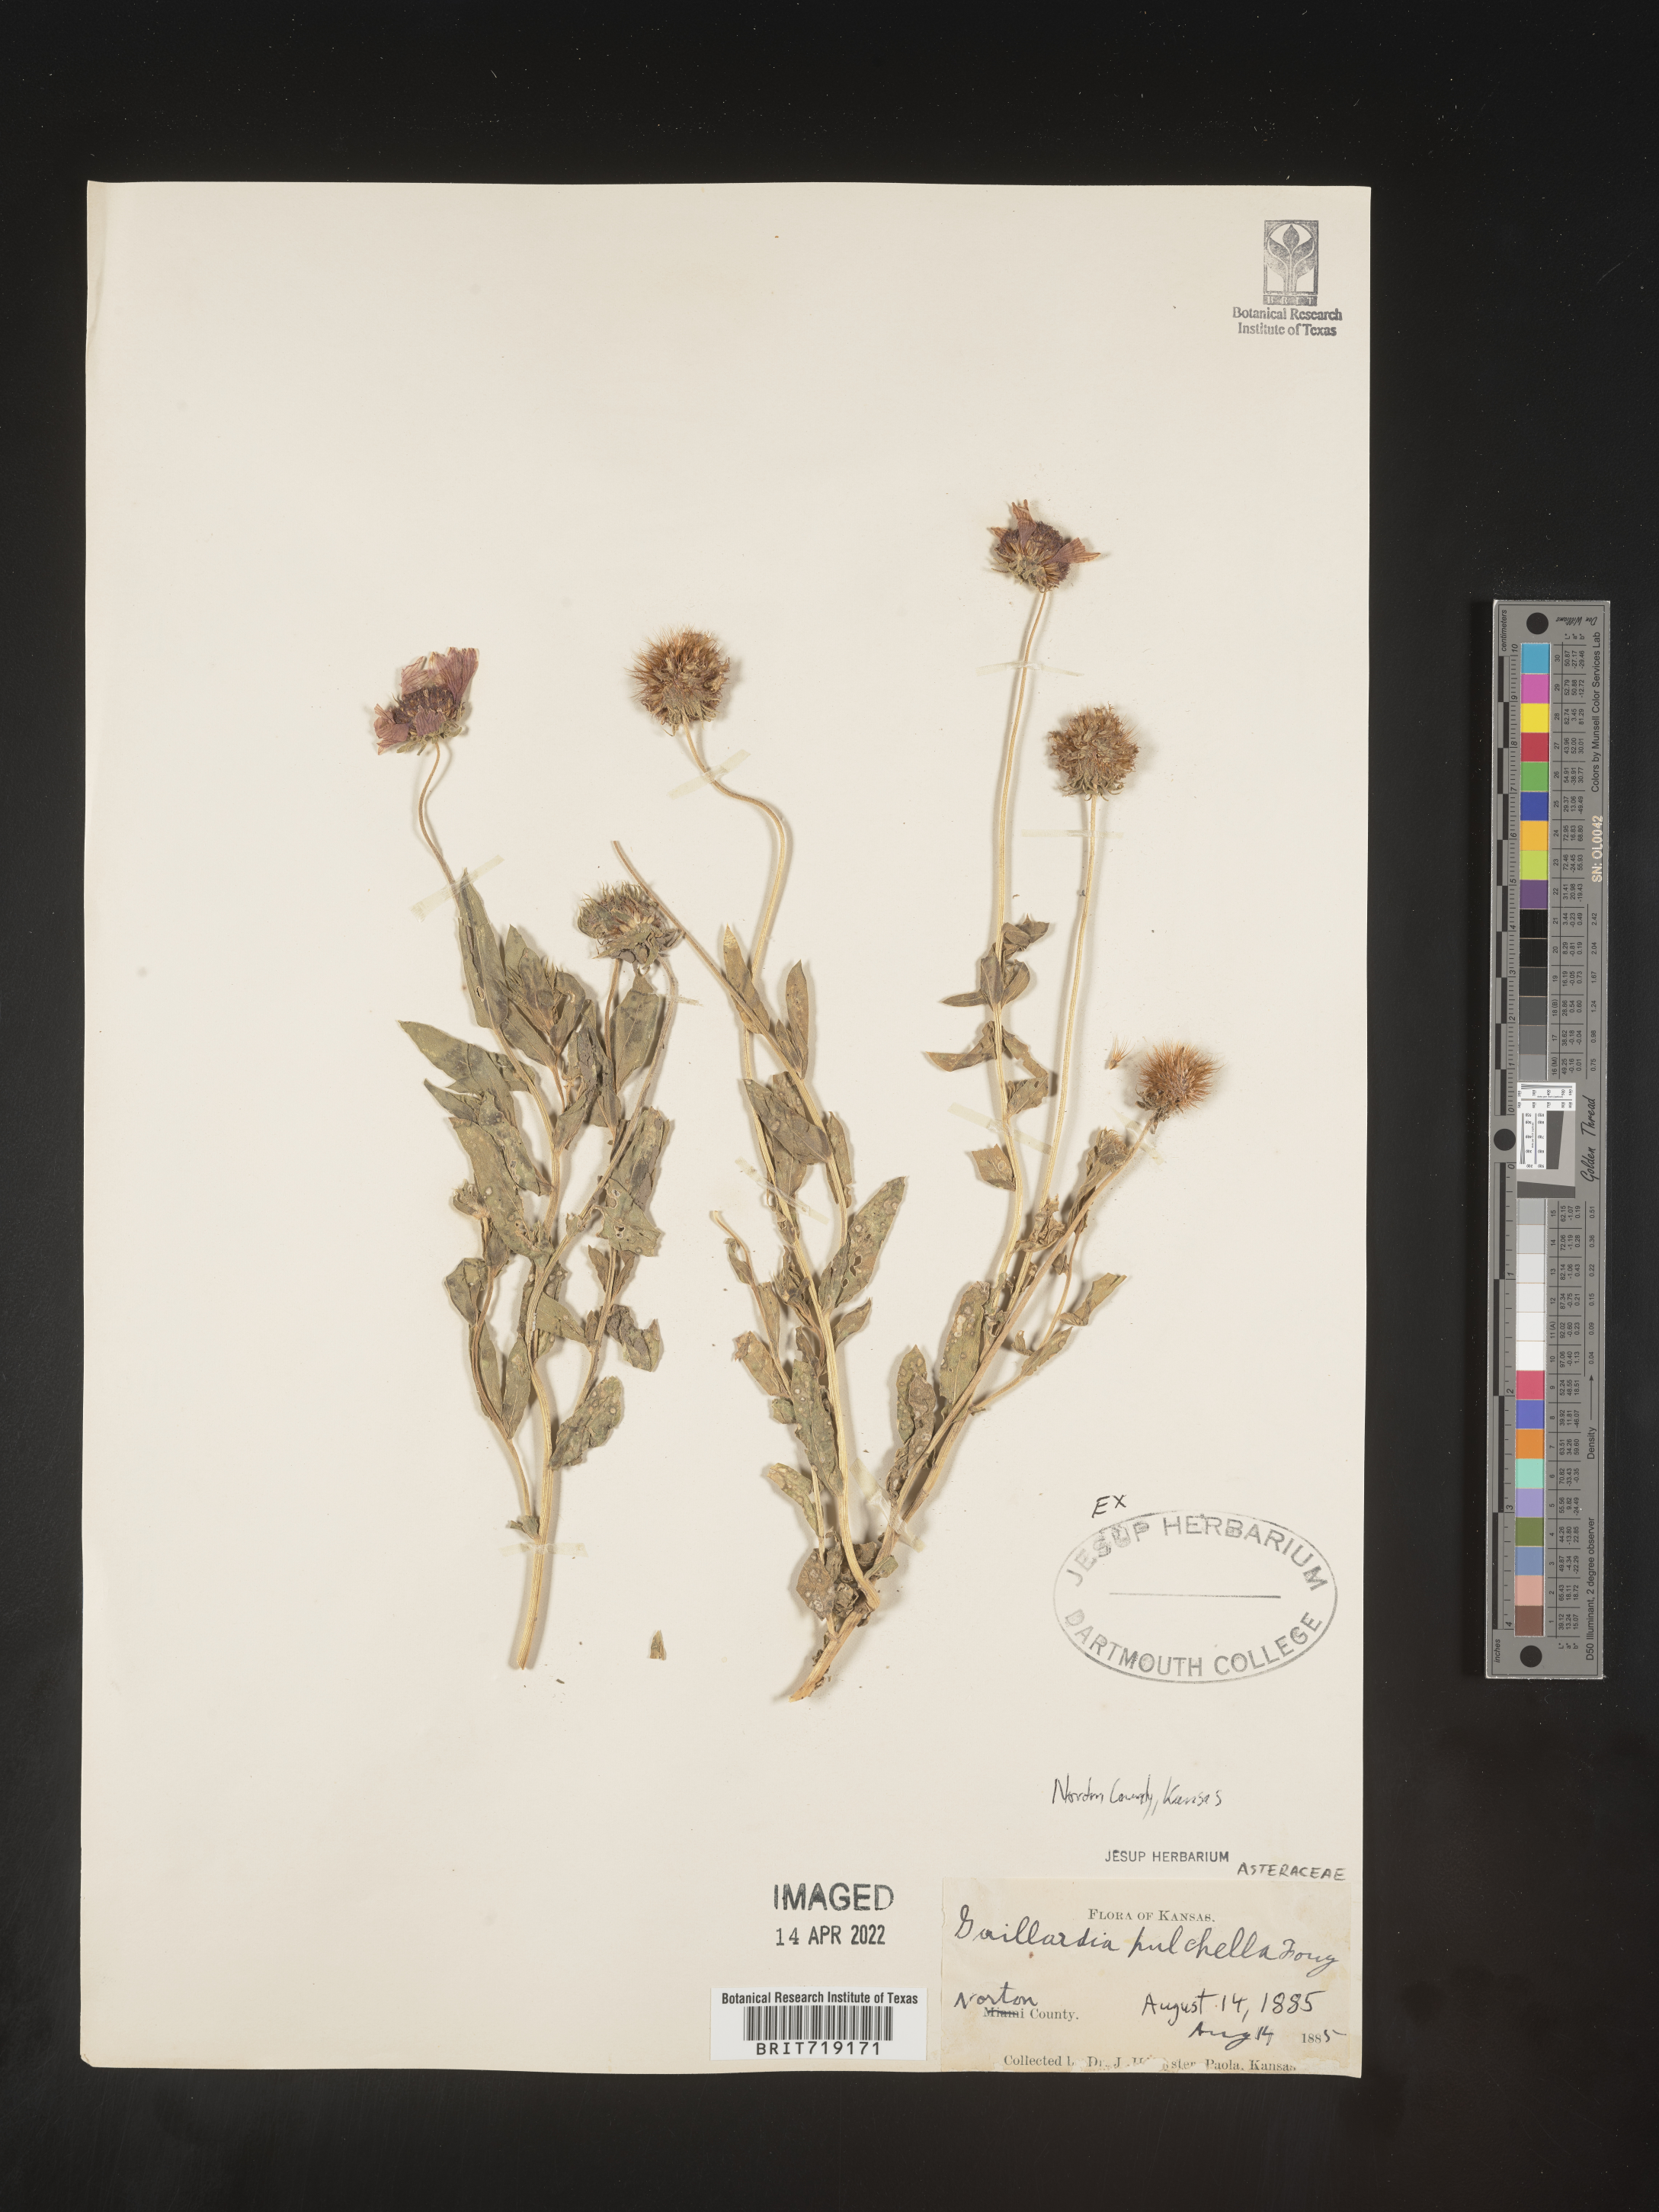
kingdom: Plantae
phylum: Tracheophyta
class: Magnoliopsida
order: Asterales
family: Asteraceae
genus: Gaillardia
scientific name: Gaillardia pulchella
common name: Firewheel
